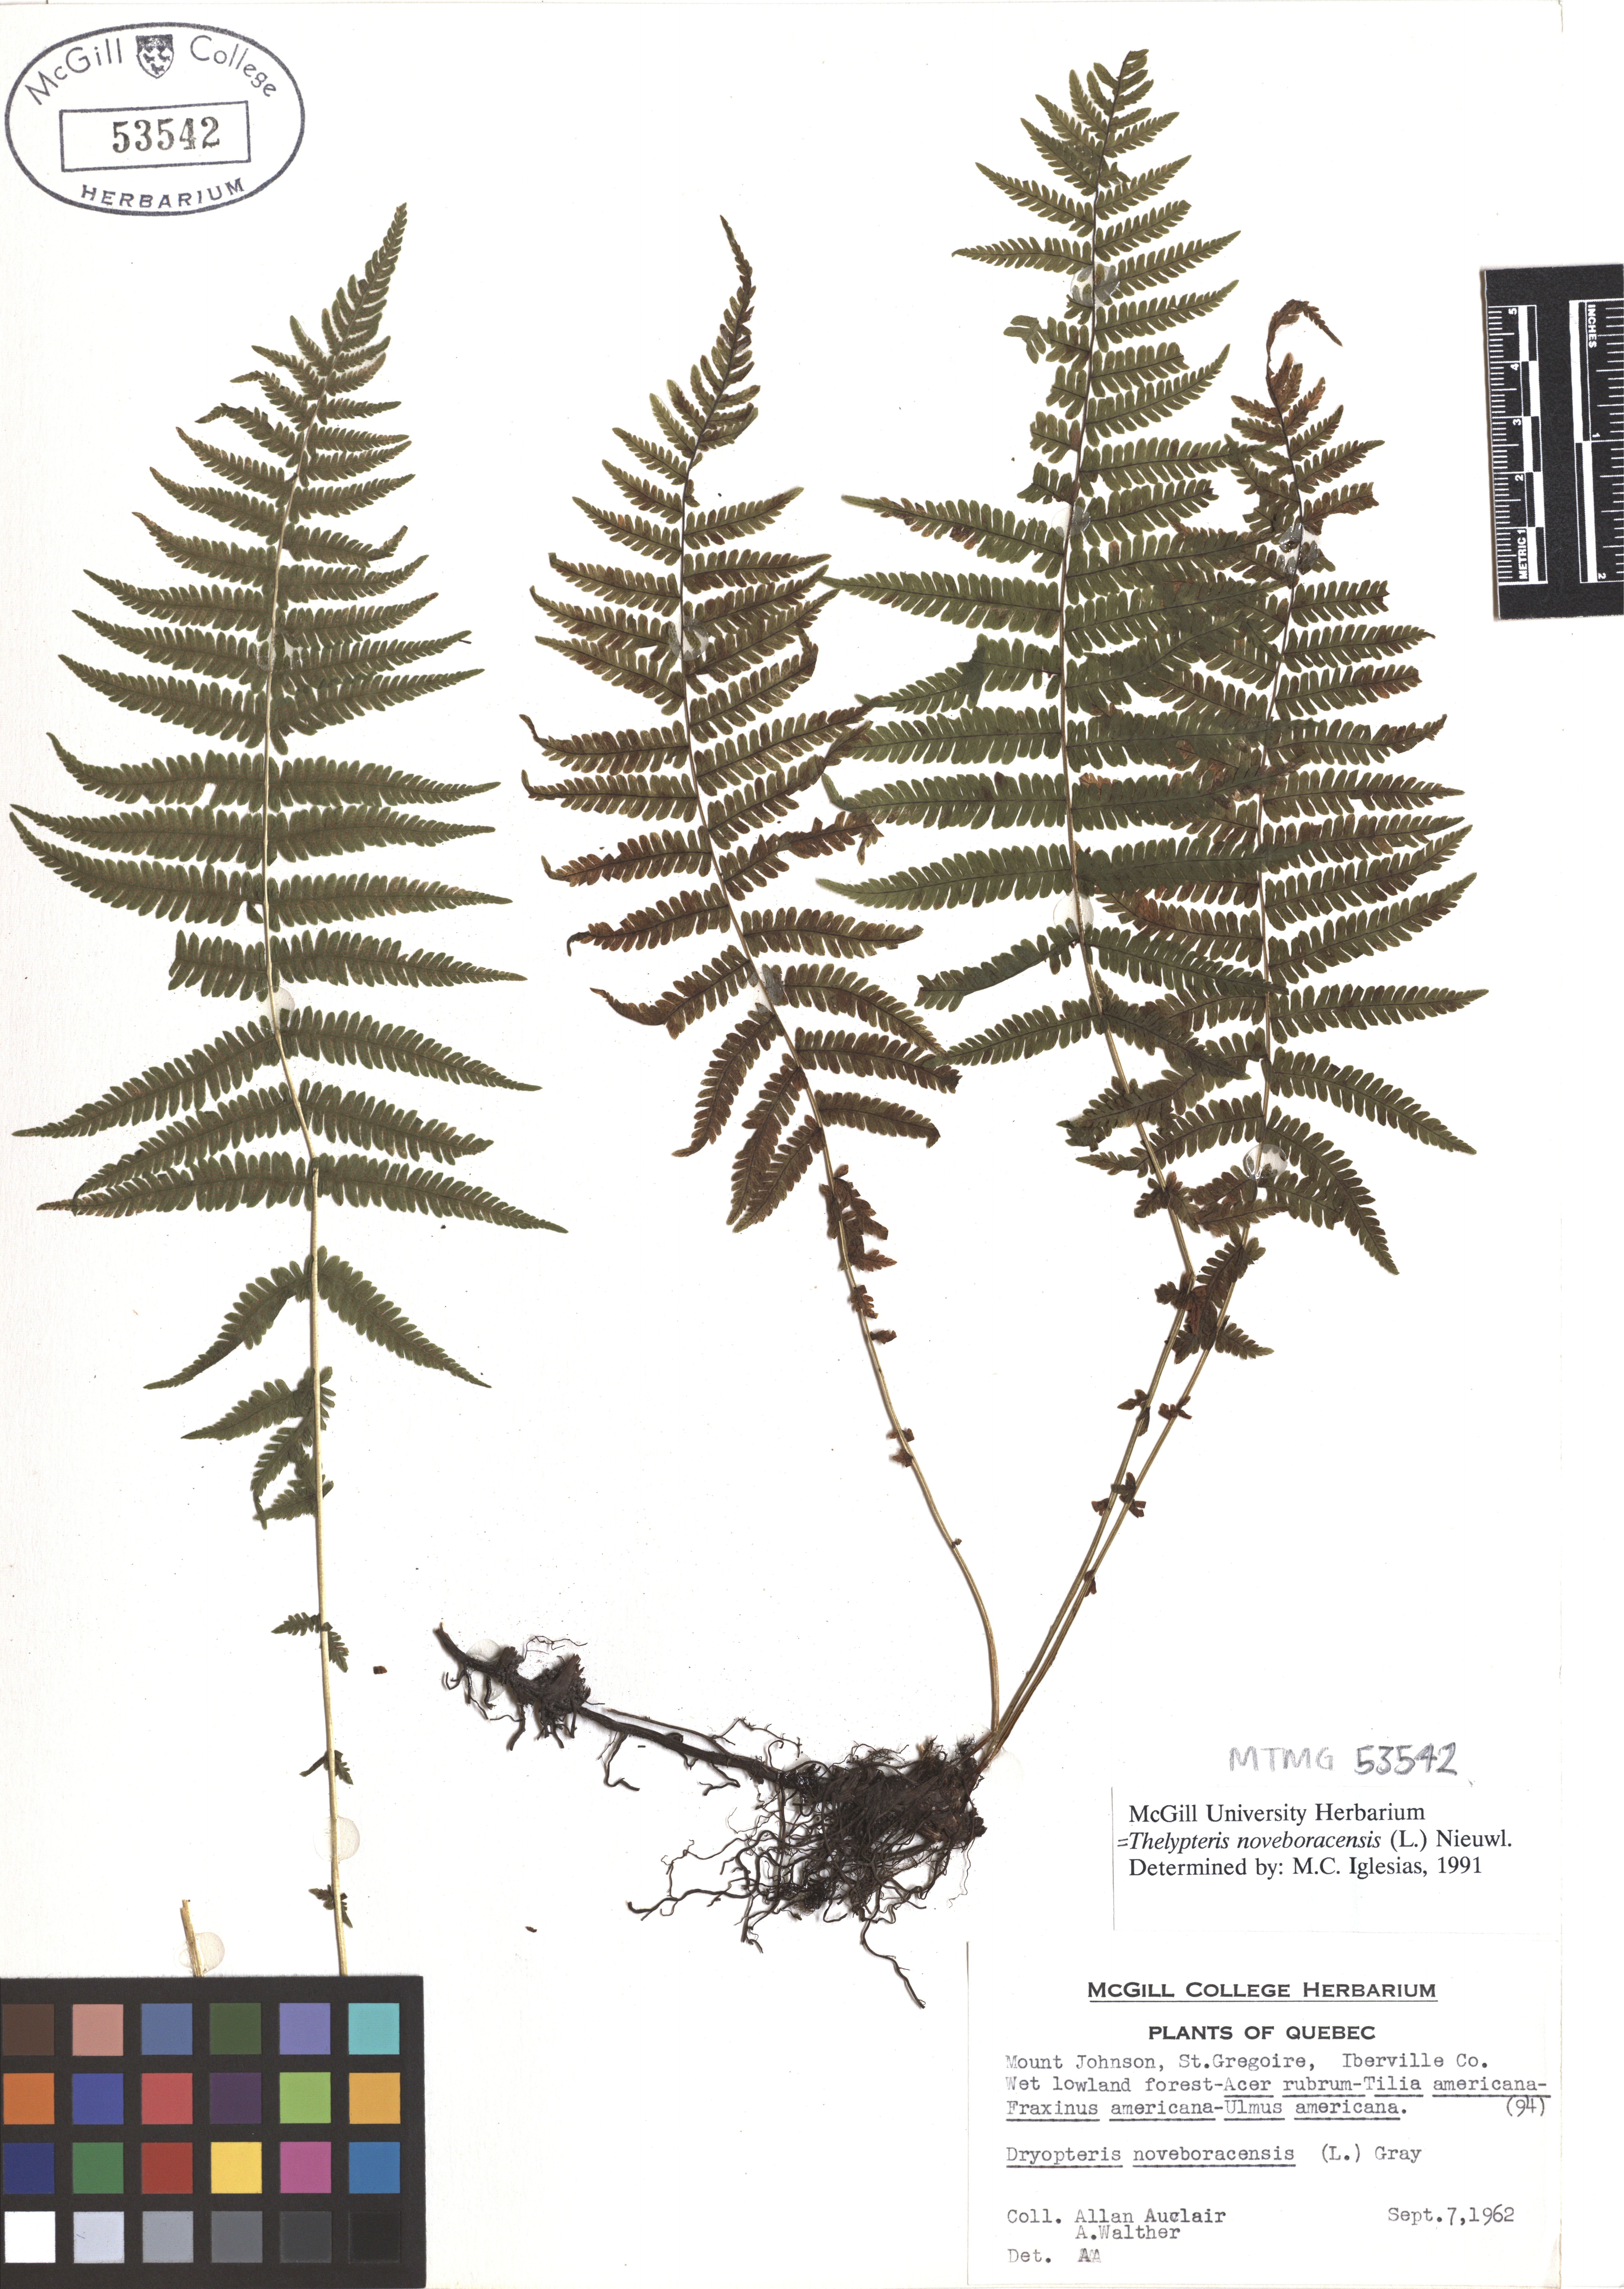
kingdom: Plantae
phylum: Tracheophyta
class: Polypodiopsida
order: Polypodiales
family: Thelypteridaceae
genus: Amauropelta
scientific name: Amauropelta noveboracensis
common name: New york fern
